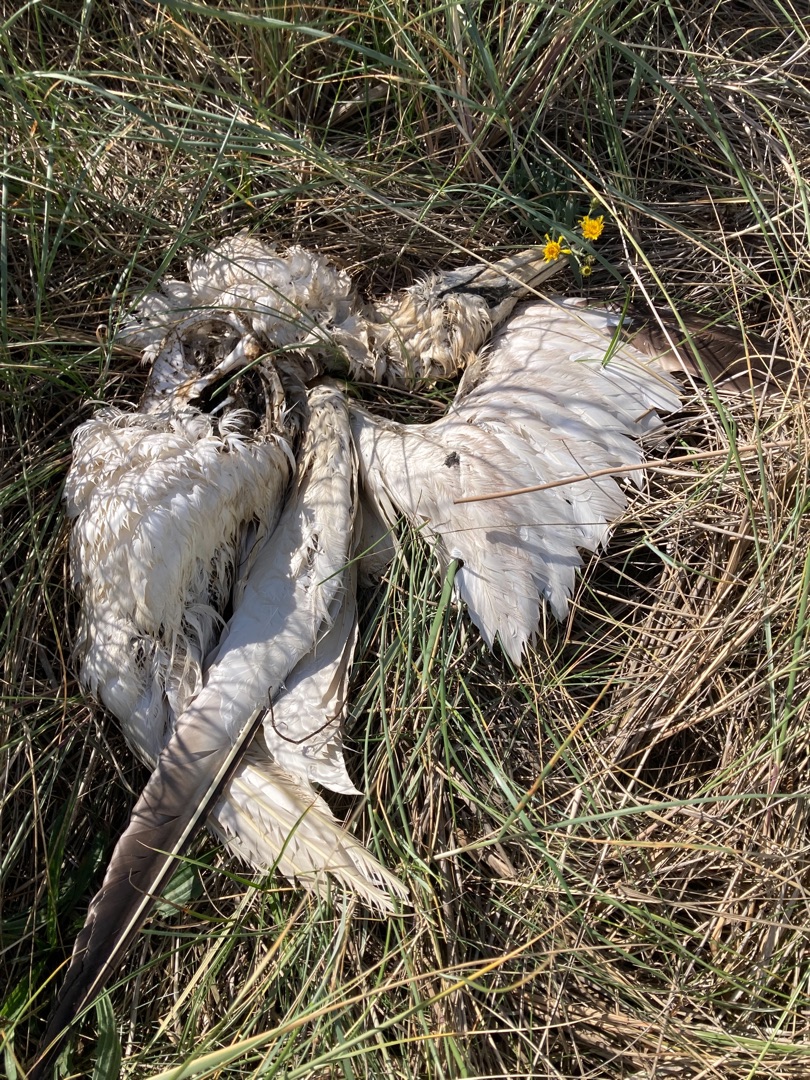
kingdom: Animalia
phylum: Chordata
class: Aves
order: Suliformes
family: Sulidae
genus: Morus
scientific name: Morus bassanus
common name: Sule
